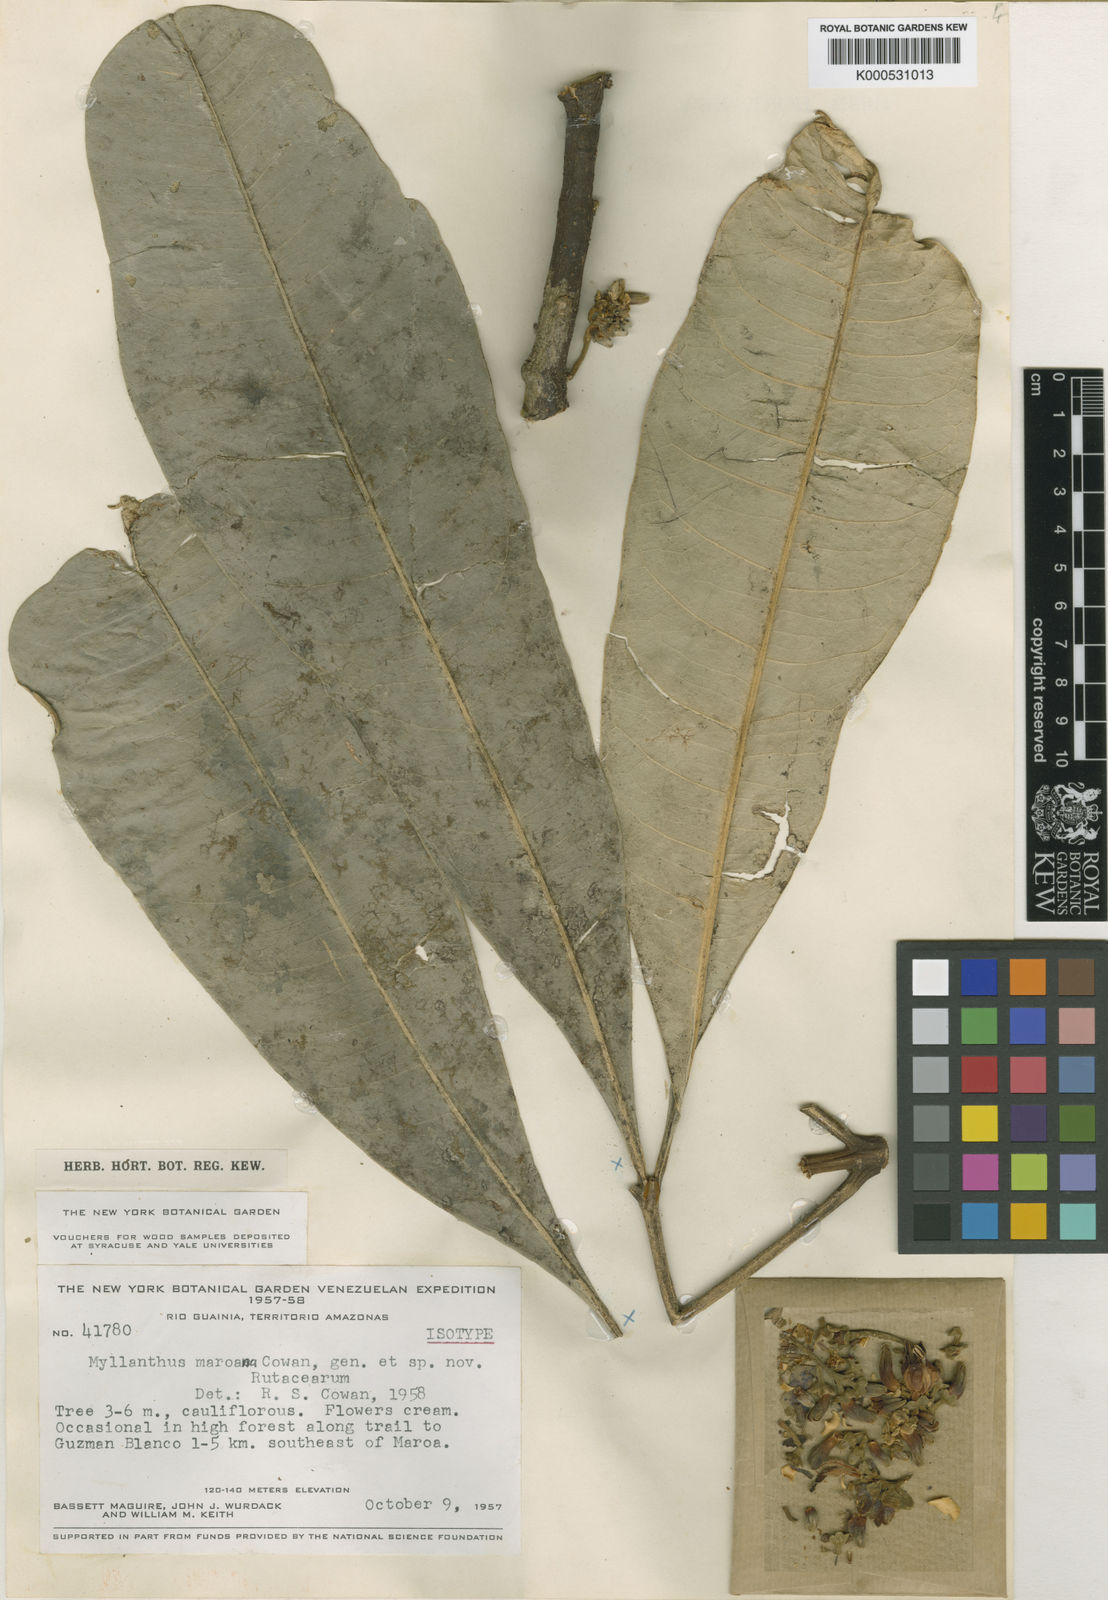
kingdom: Plantae
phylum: Tracheophyta
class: Magnoliopsida
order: Sapindales
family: Rutaceae
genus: Raputia
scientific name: Raputia maroana
